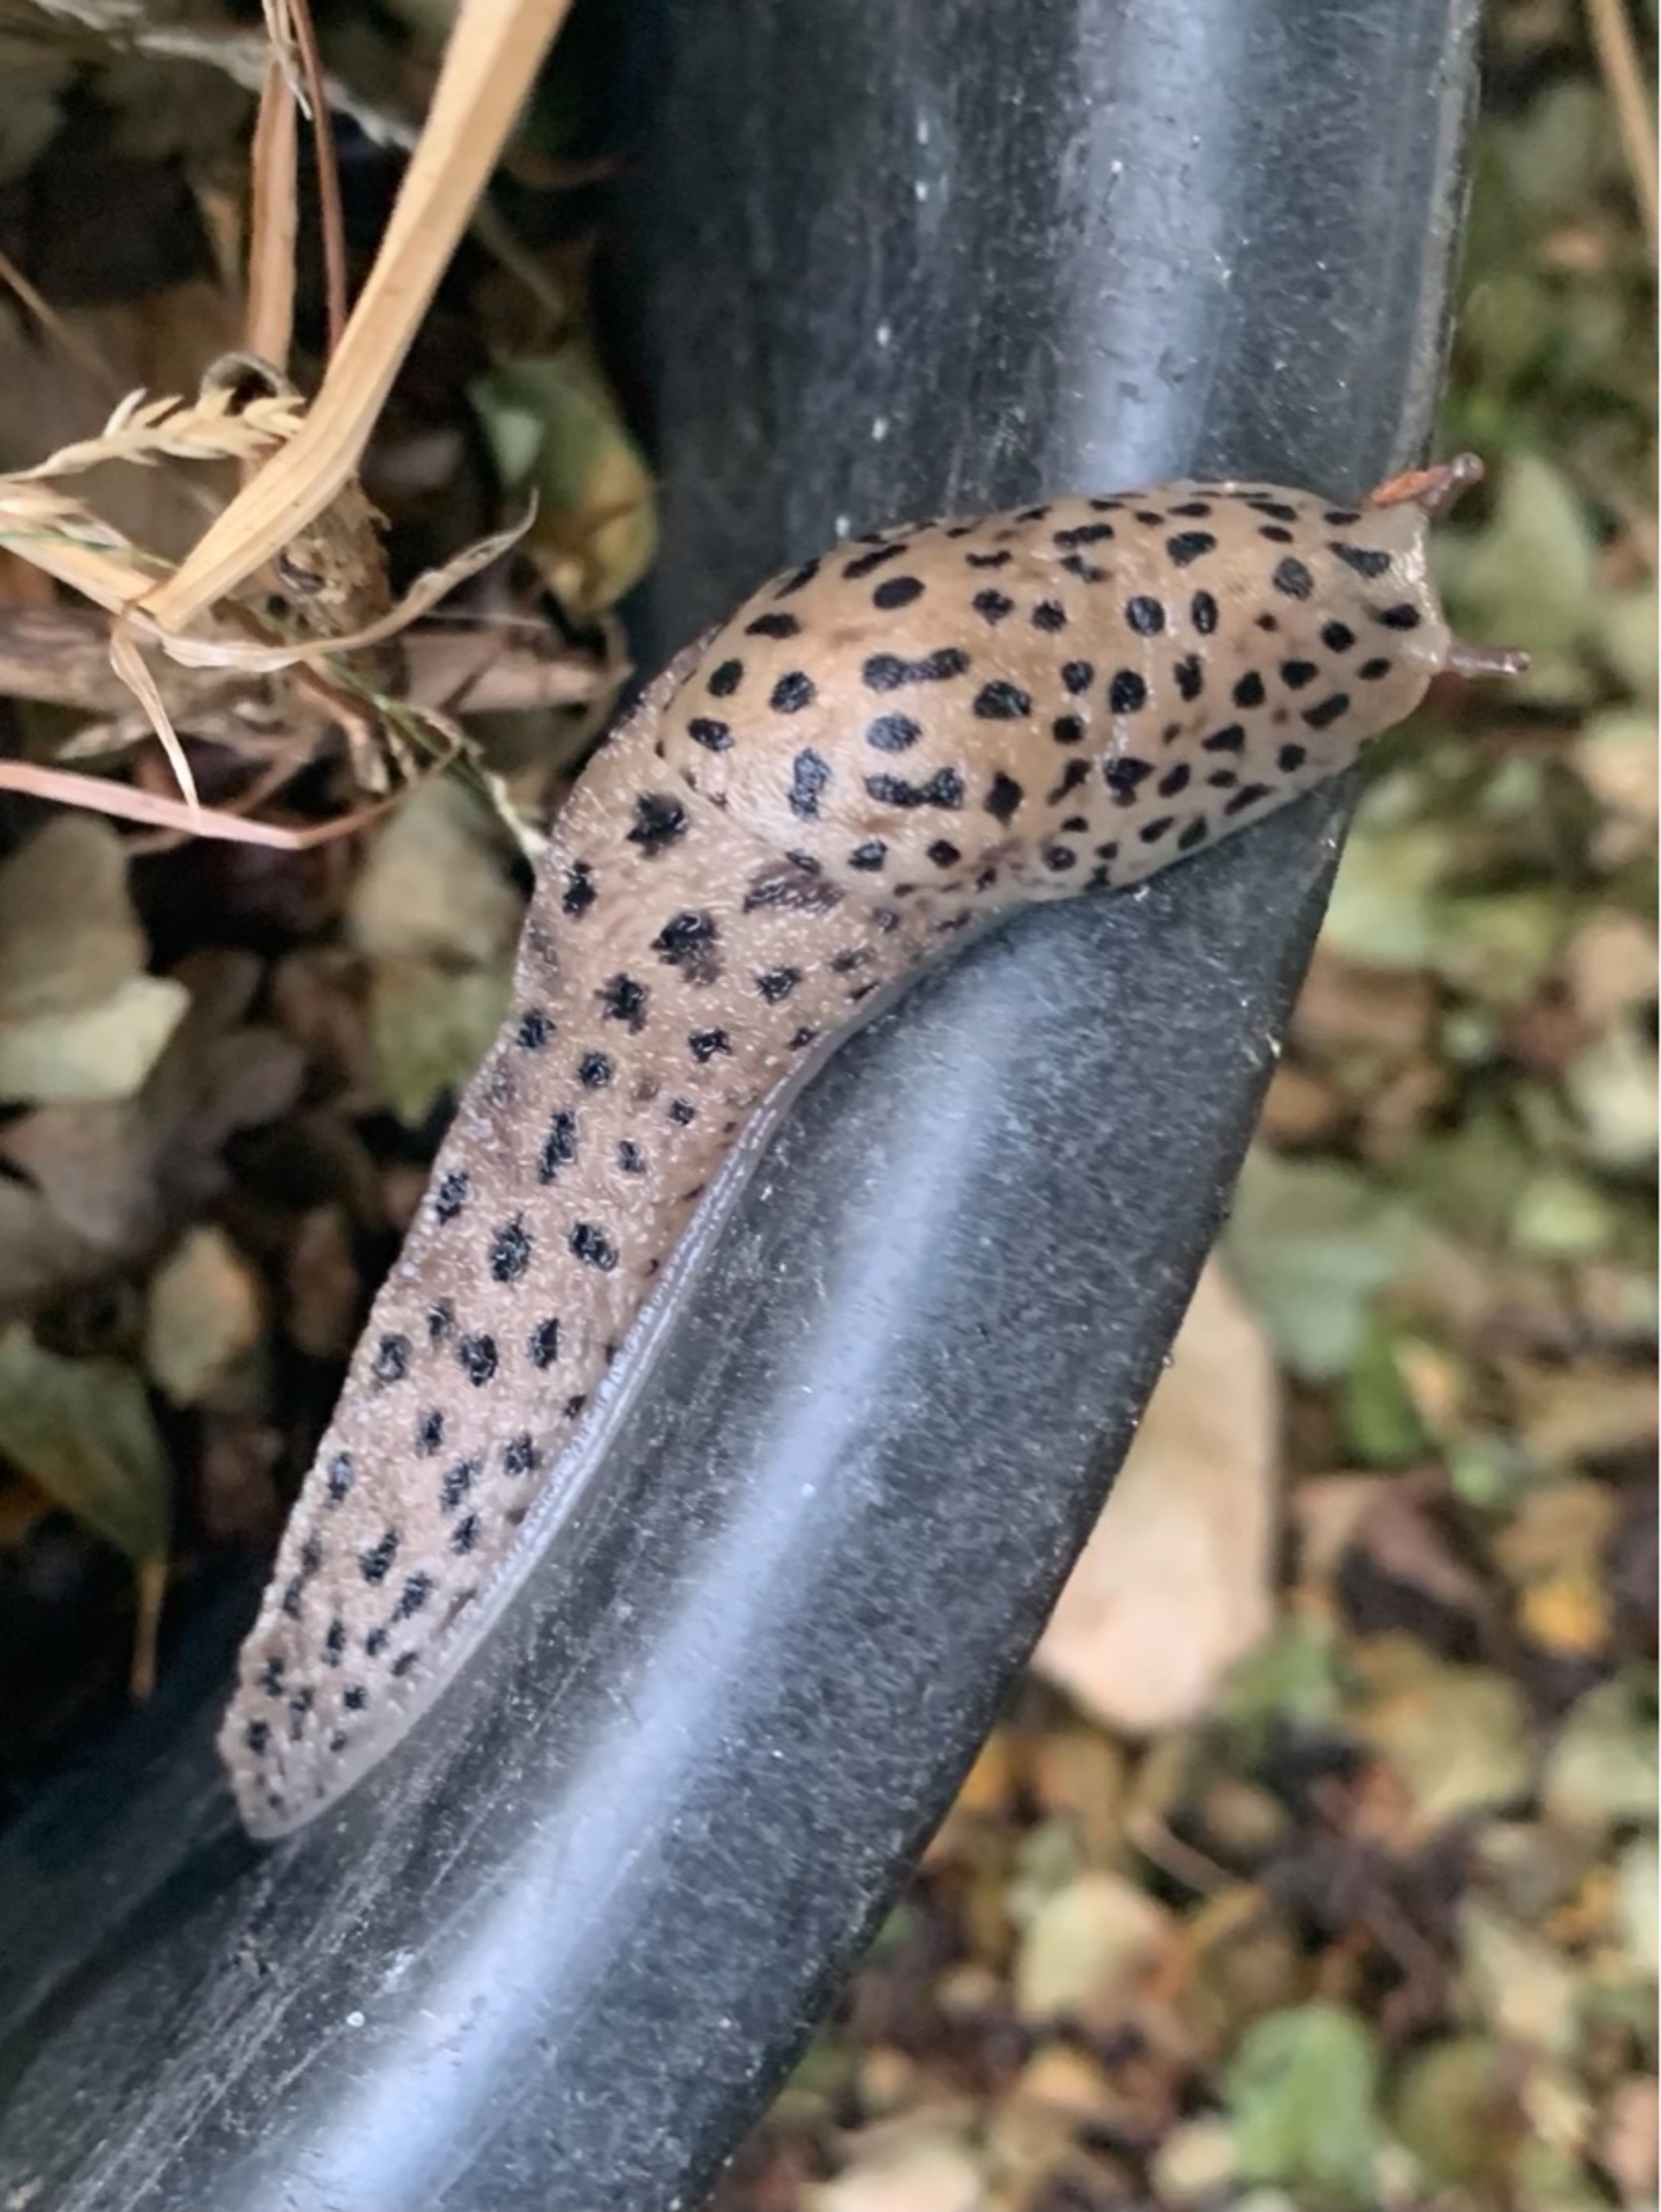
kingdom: Animalia
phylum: Mollusca
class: Gastropoda
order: Stylommatophora
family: Limacidae
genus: Limax
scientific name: Limax maximus
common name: Pantersnegl
